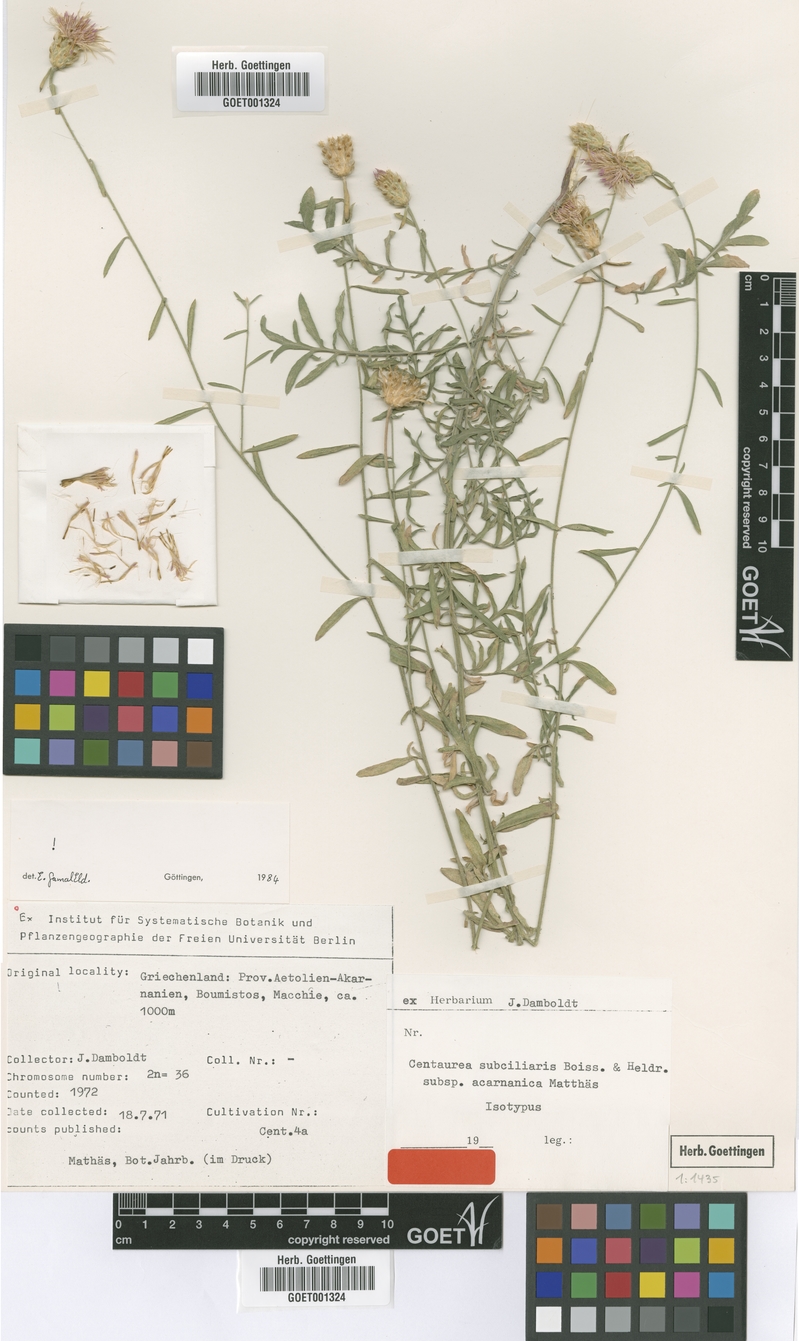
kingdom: Plantae
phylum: Tracheophyta
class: Magnoliopsida
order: Asterales
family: Asteraceae
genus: Centaurea
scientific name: Centaurea acarnanica
